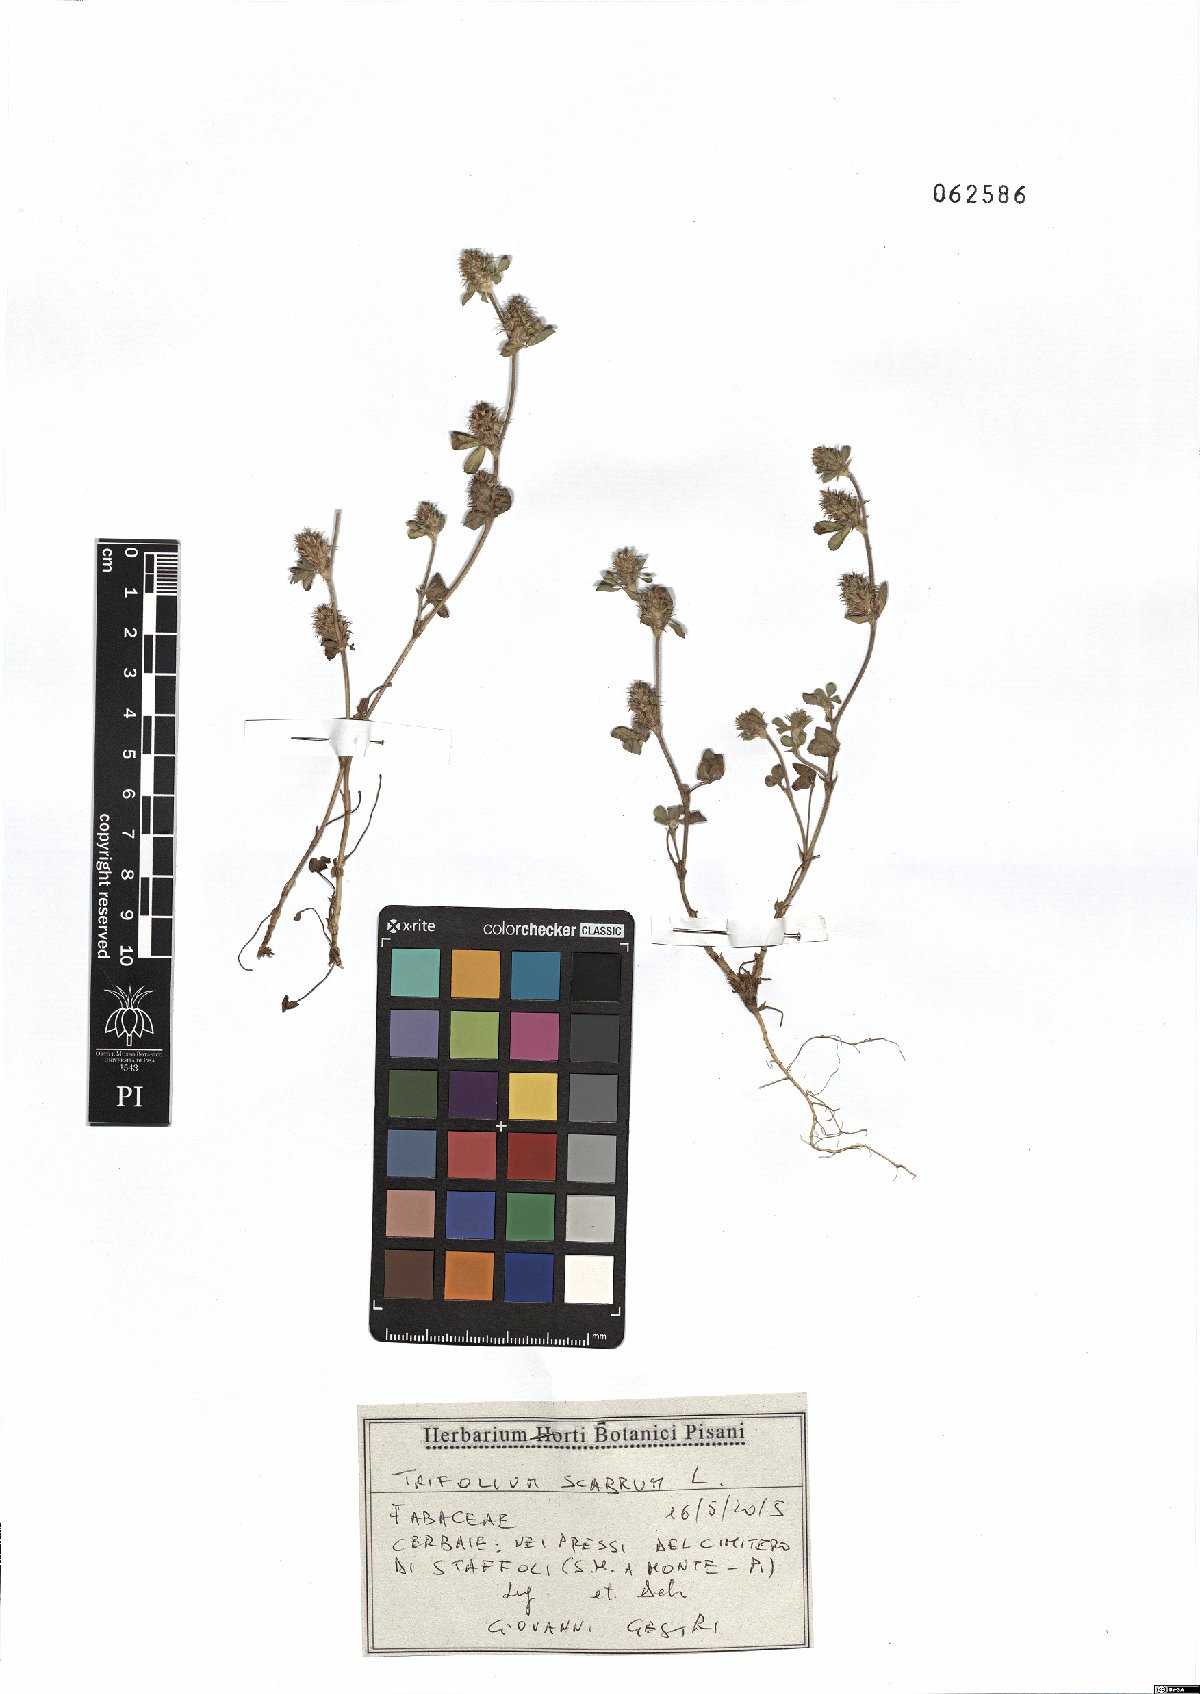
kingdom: Plantae
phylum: Tracheophyta
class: Magnoliopsida
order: Fabales
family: Fabaceae
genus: Trifolium
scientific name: Trifolium scabrum
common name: Rough clover
